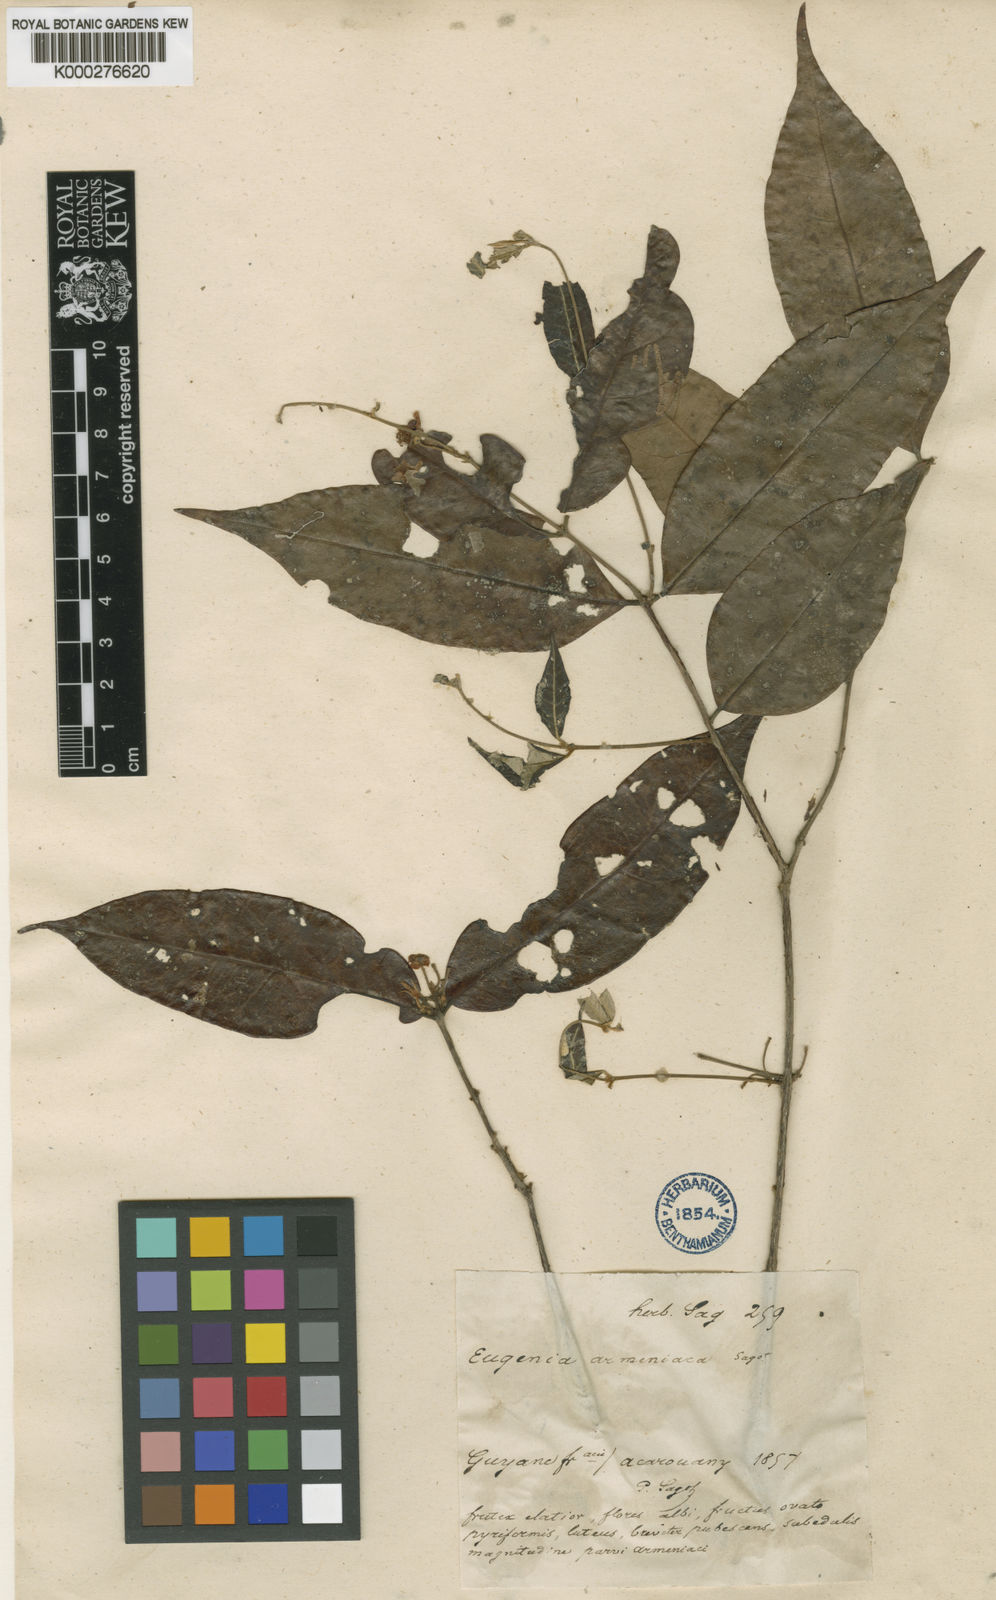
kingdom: Plantae
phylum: Tracheophyta
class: Magnoliopsida
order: Myrtales
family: Myrtaceae
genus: Eugenia
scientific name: Eugenia armeniaca
